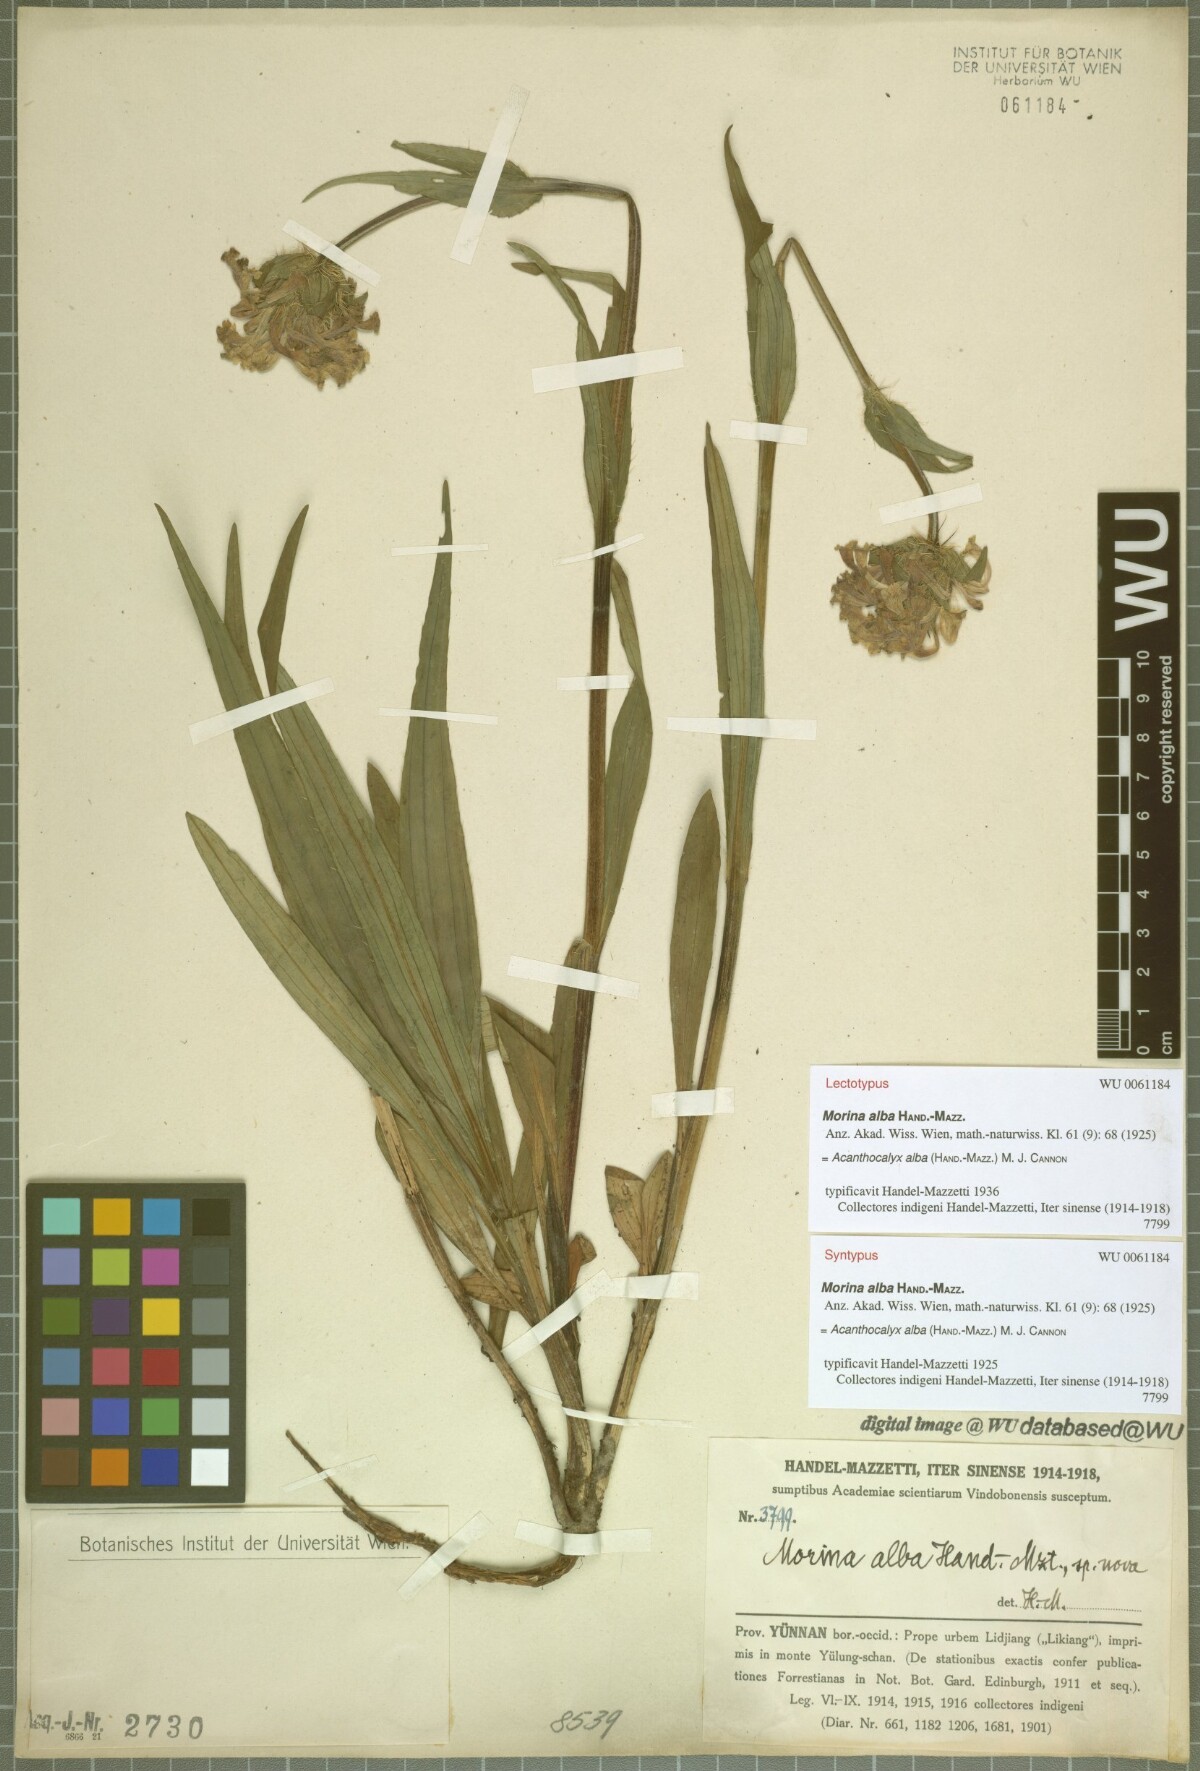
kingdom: Plantae
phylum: Tracheophyta
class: Magnoliopsida
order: Dipsacales
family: Caprifoliaceae
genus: Acanthocalyx
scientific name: Acanthocalyx alba
